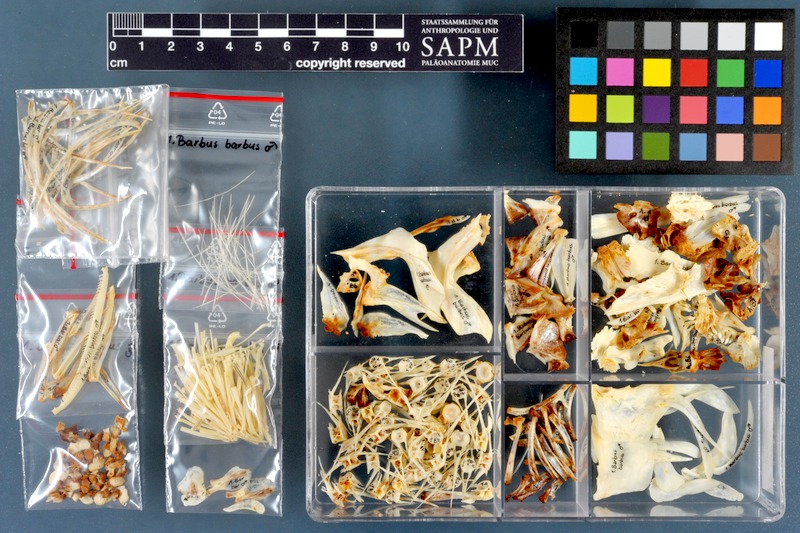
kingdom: Animalia
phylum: Chordata
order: Cypriniformes
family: Cyprinidae
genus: Barbus
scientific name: Barbus barbus
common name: Barbel
